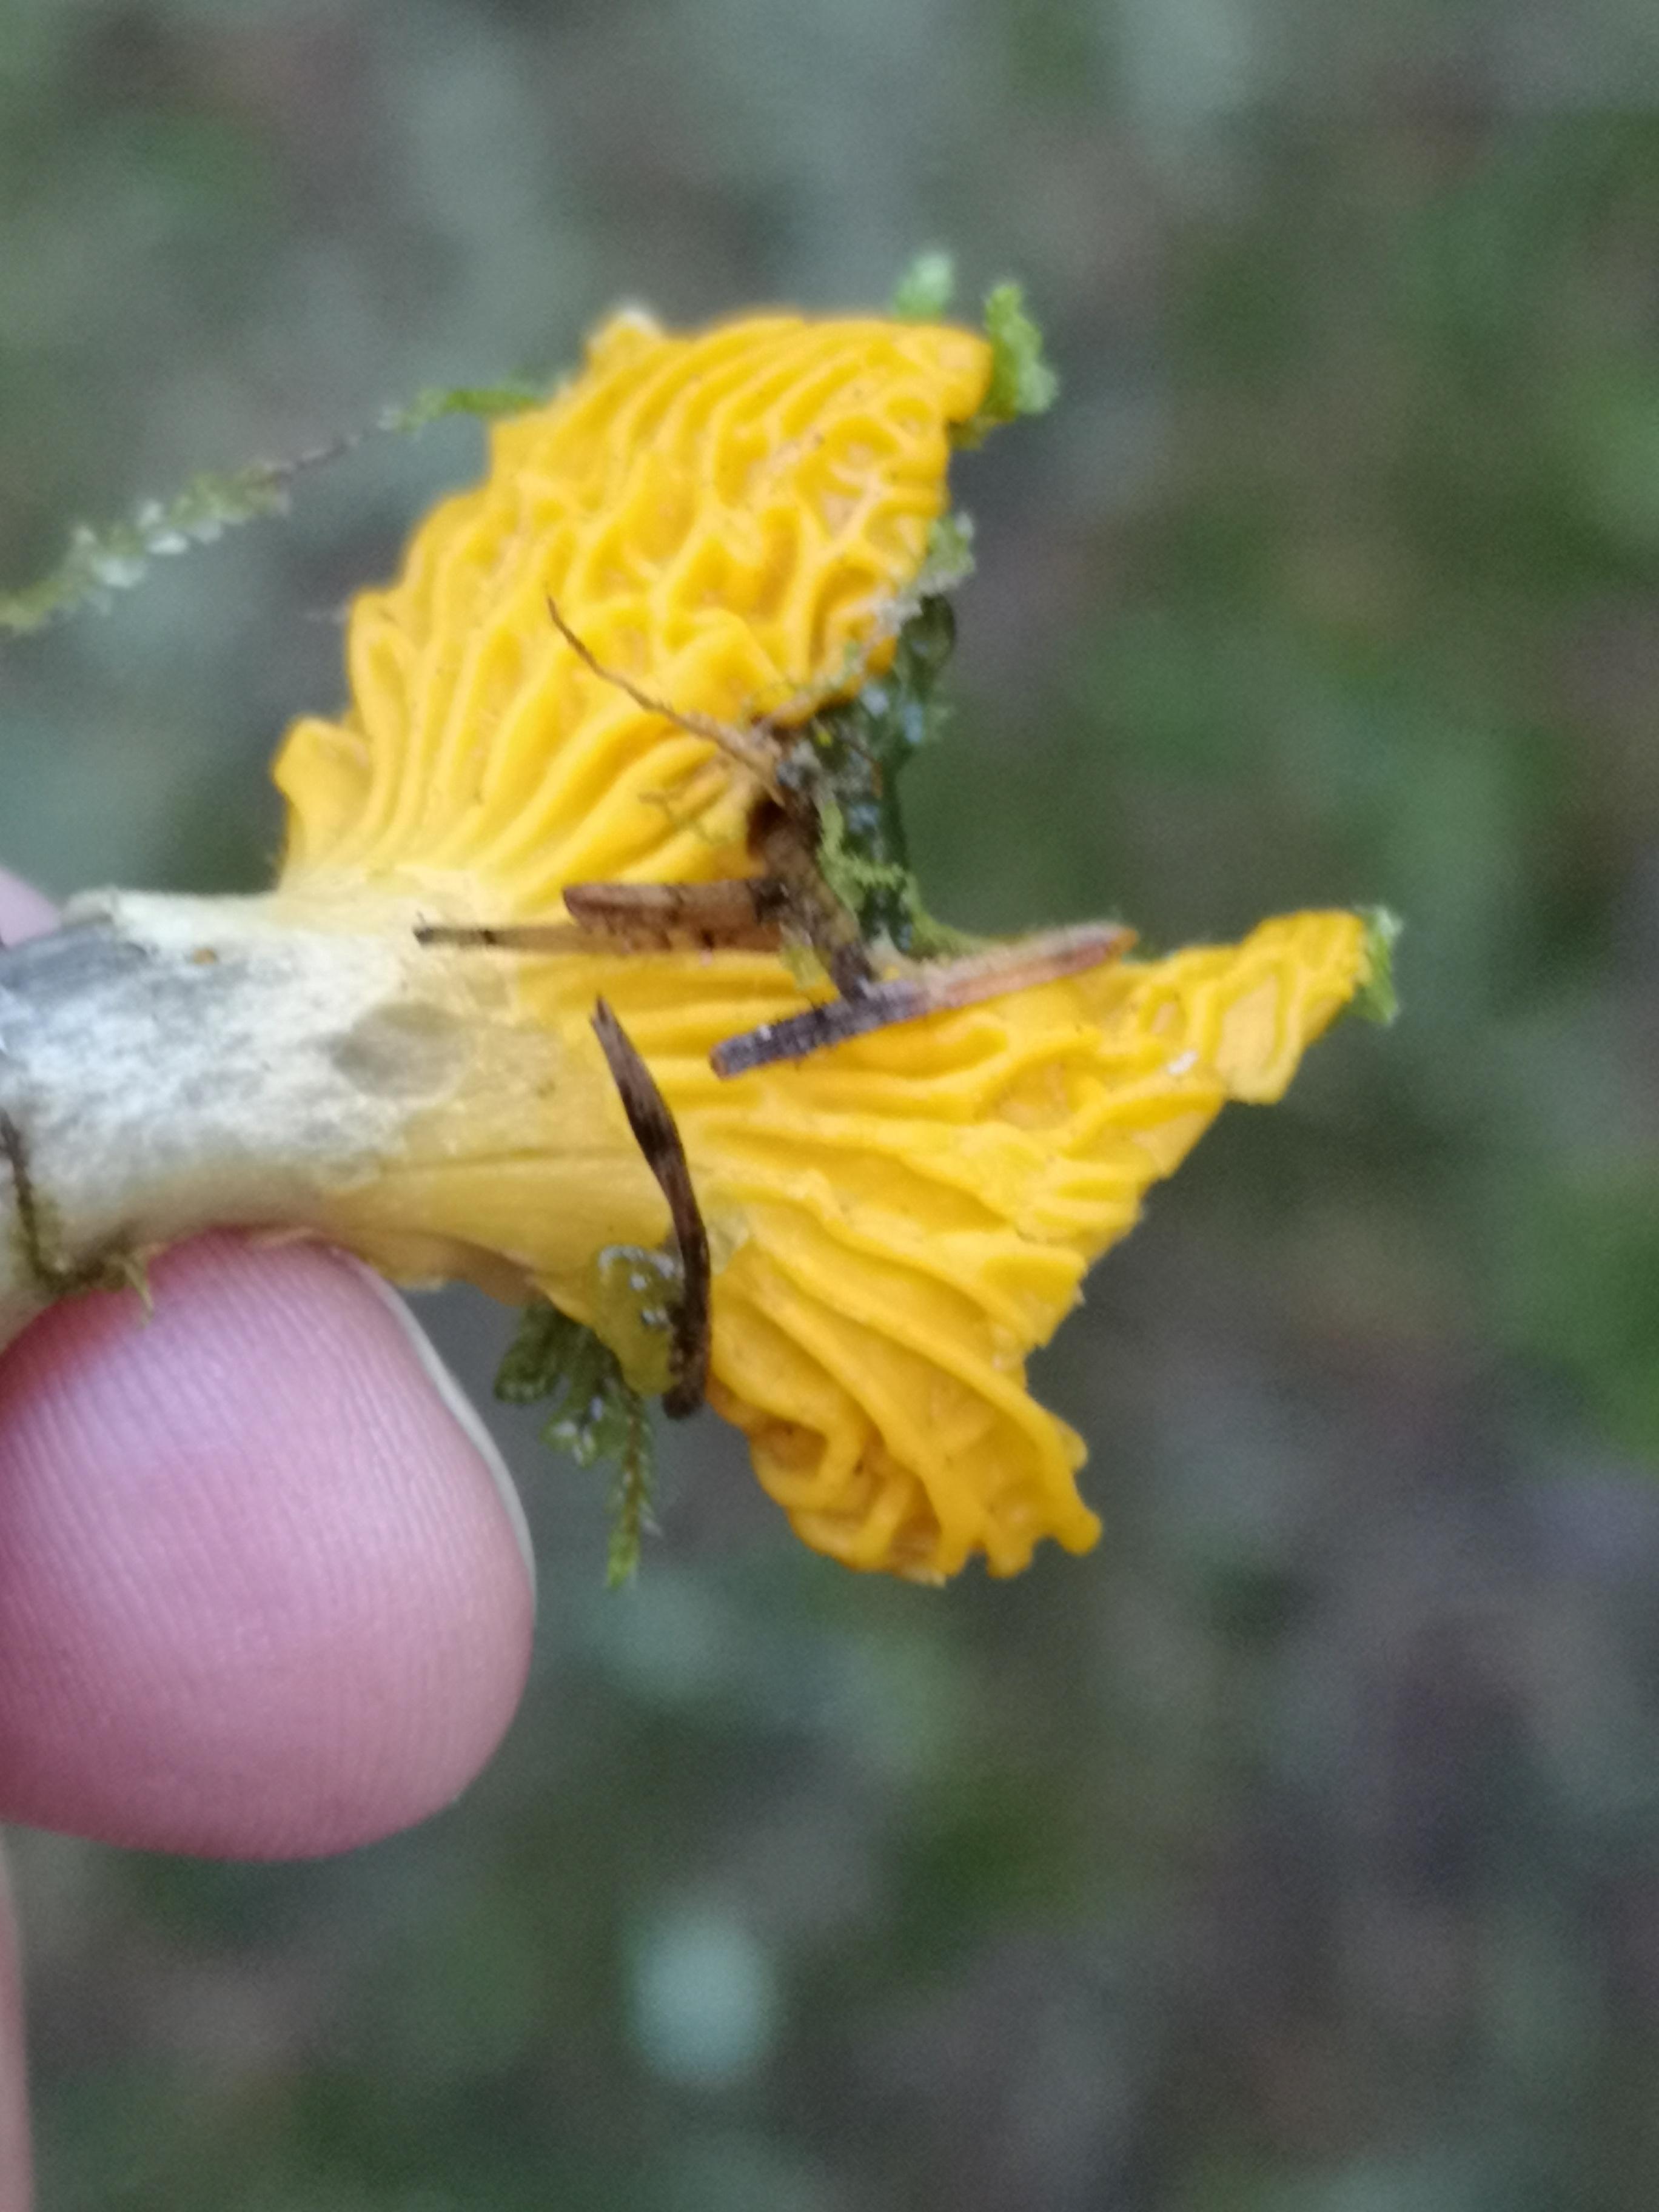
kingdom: Fungi
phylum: Basidiomycota
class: Agaricomycetes
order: Cantharellales
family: Hydnaceae
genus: Cantharellus
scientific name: Cantharellus cibarius
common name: almindelig kantarel
